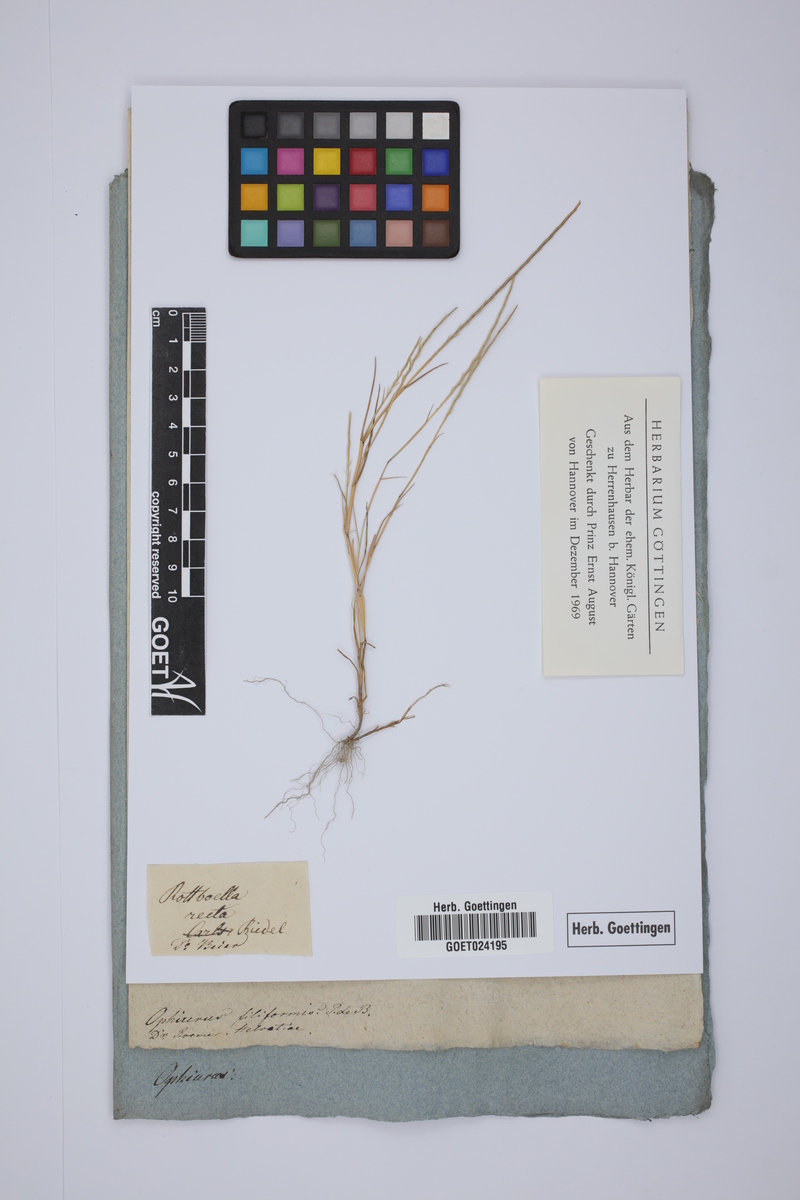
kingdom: Plantae
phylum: Tracheophyta
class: Liliopsida
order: Poales
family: Poaceae
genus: Parapholis
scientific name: Parapholis filiformis
